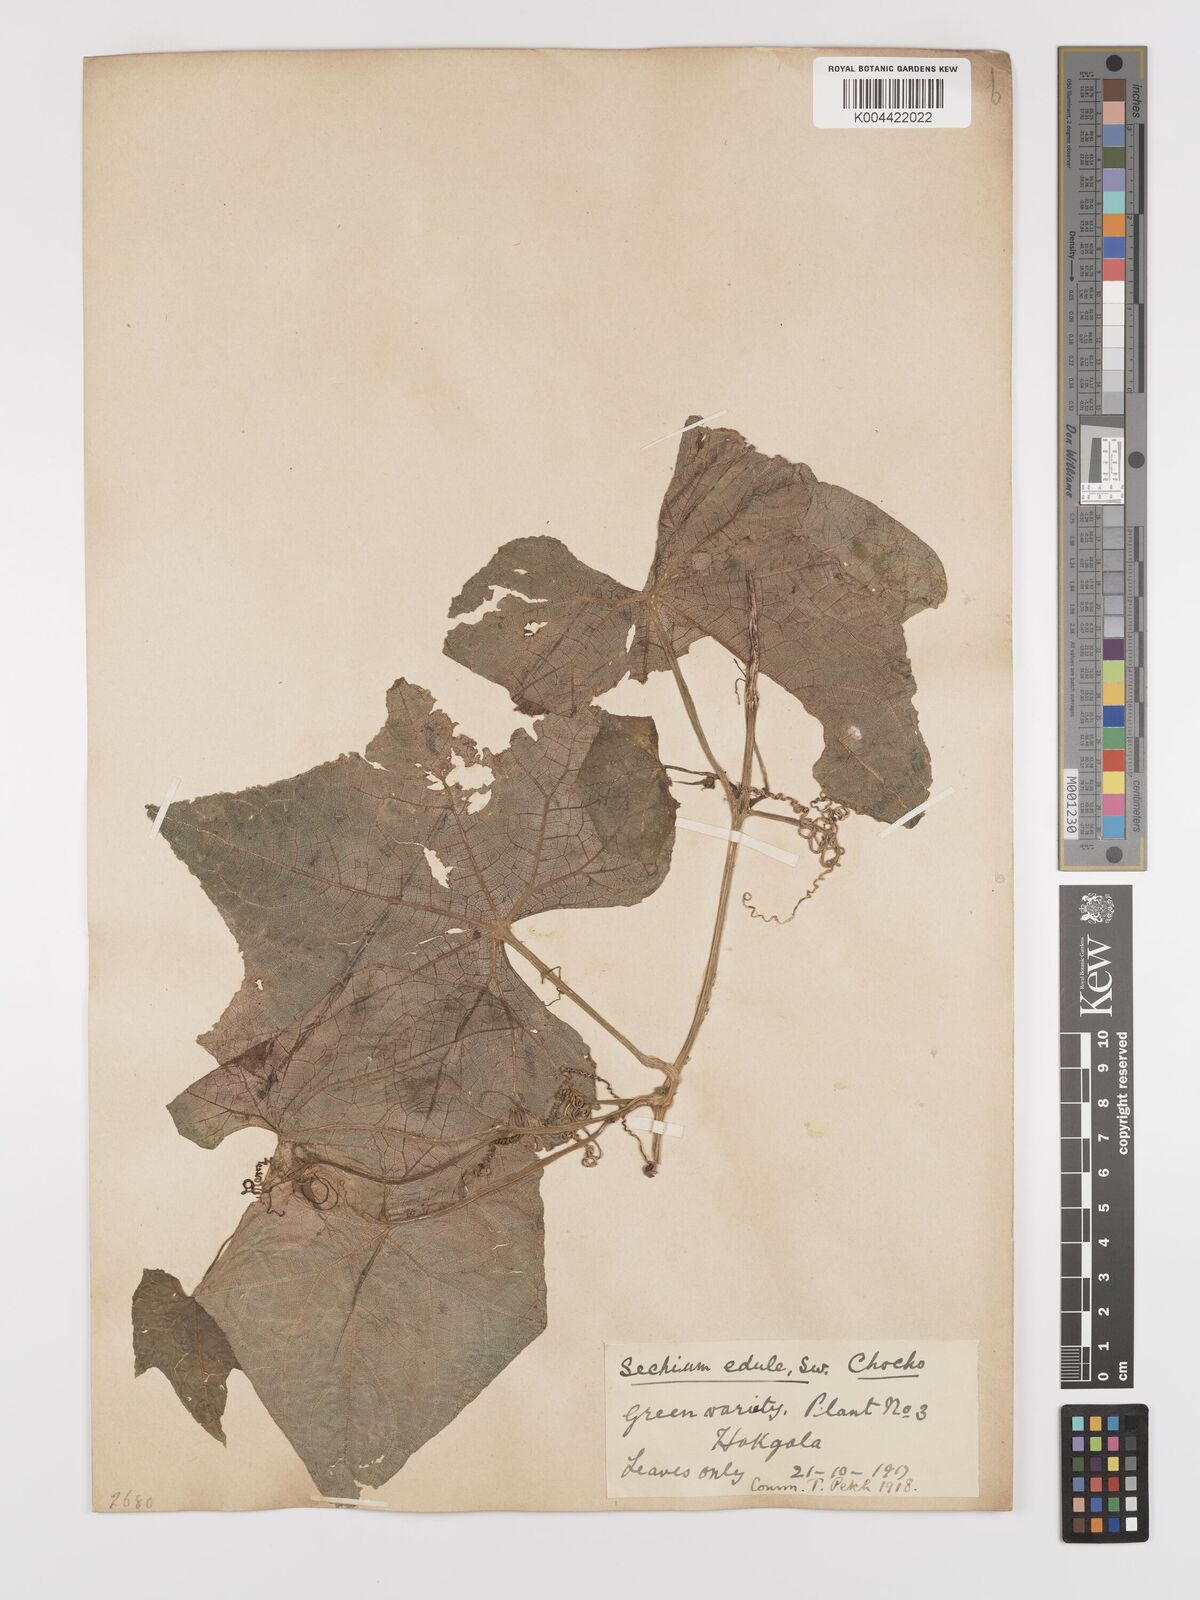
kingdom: Plantae
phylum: Tracheophyta
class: Magnoliopsida
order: Cucurbitales
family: Cucurbitaceae
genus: Sechium
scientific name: Sechium edule
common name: Chayote
